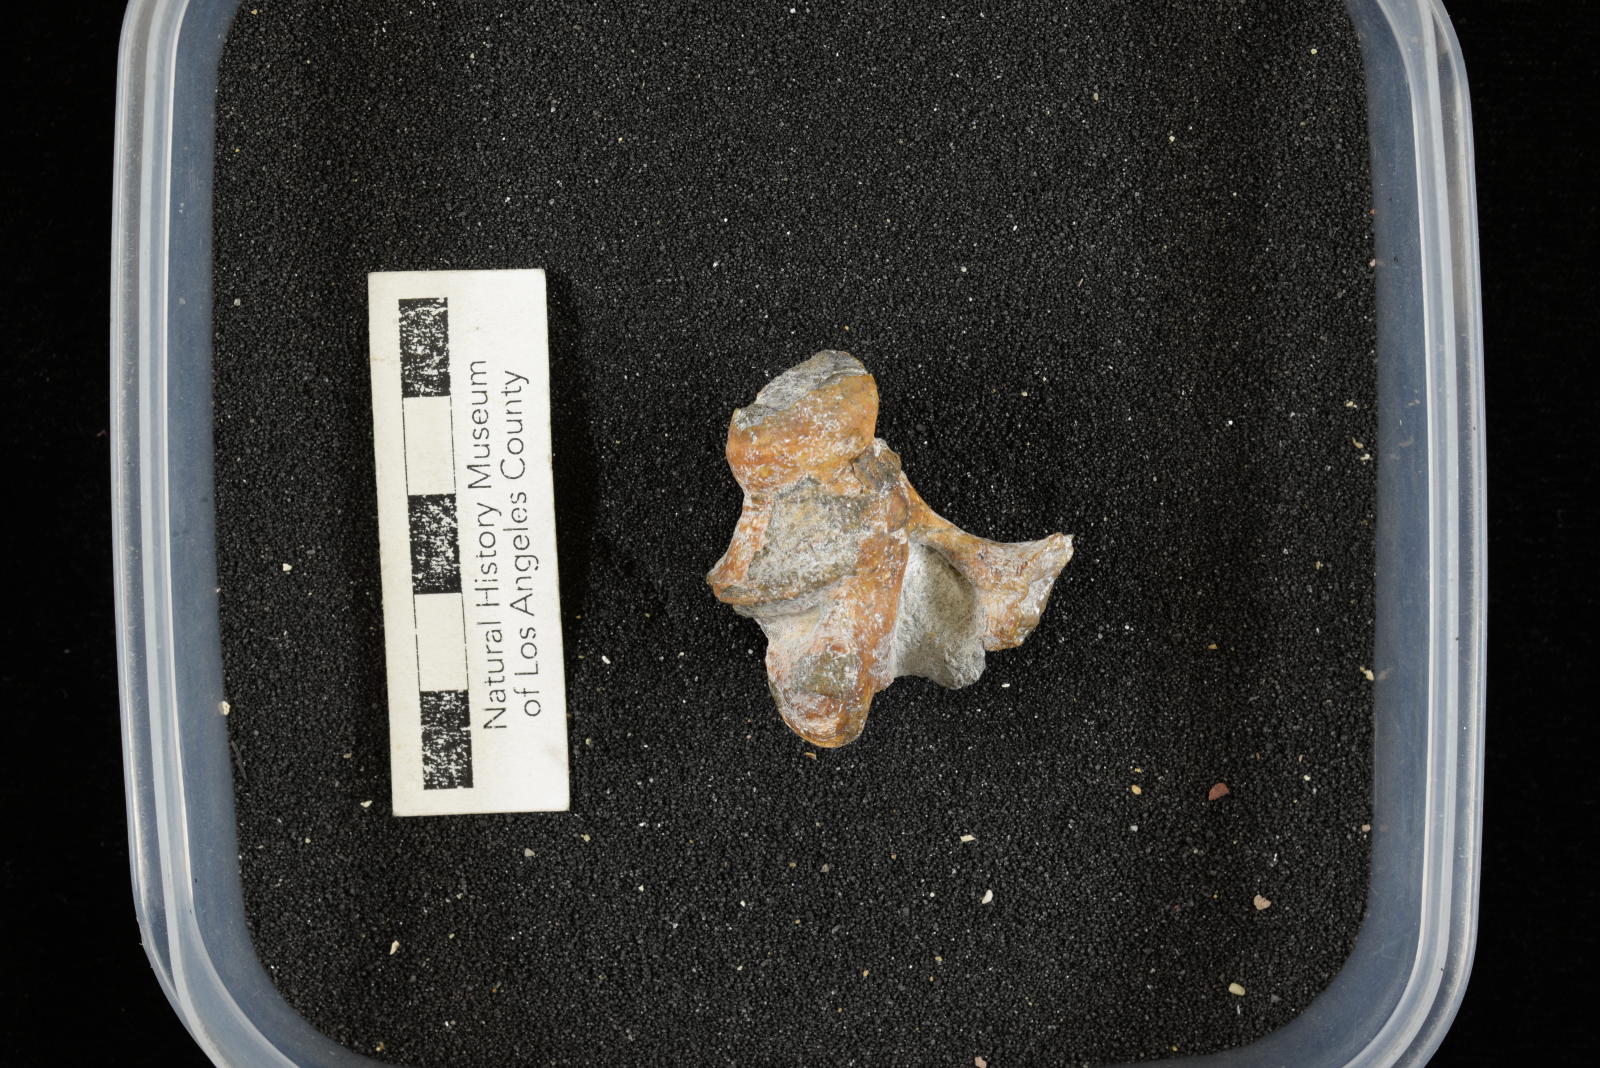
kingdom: Animalia
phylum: Mollusca
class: Gastropoda
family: Nerineidae
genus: Nerinea
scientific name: Nerinea stewarti
